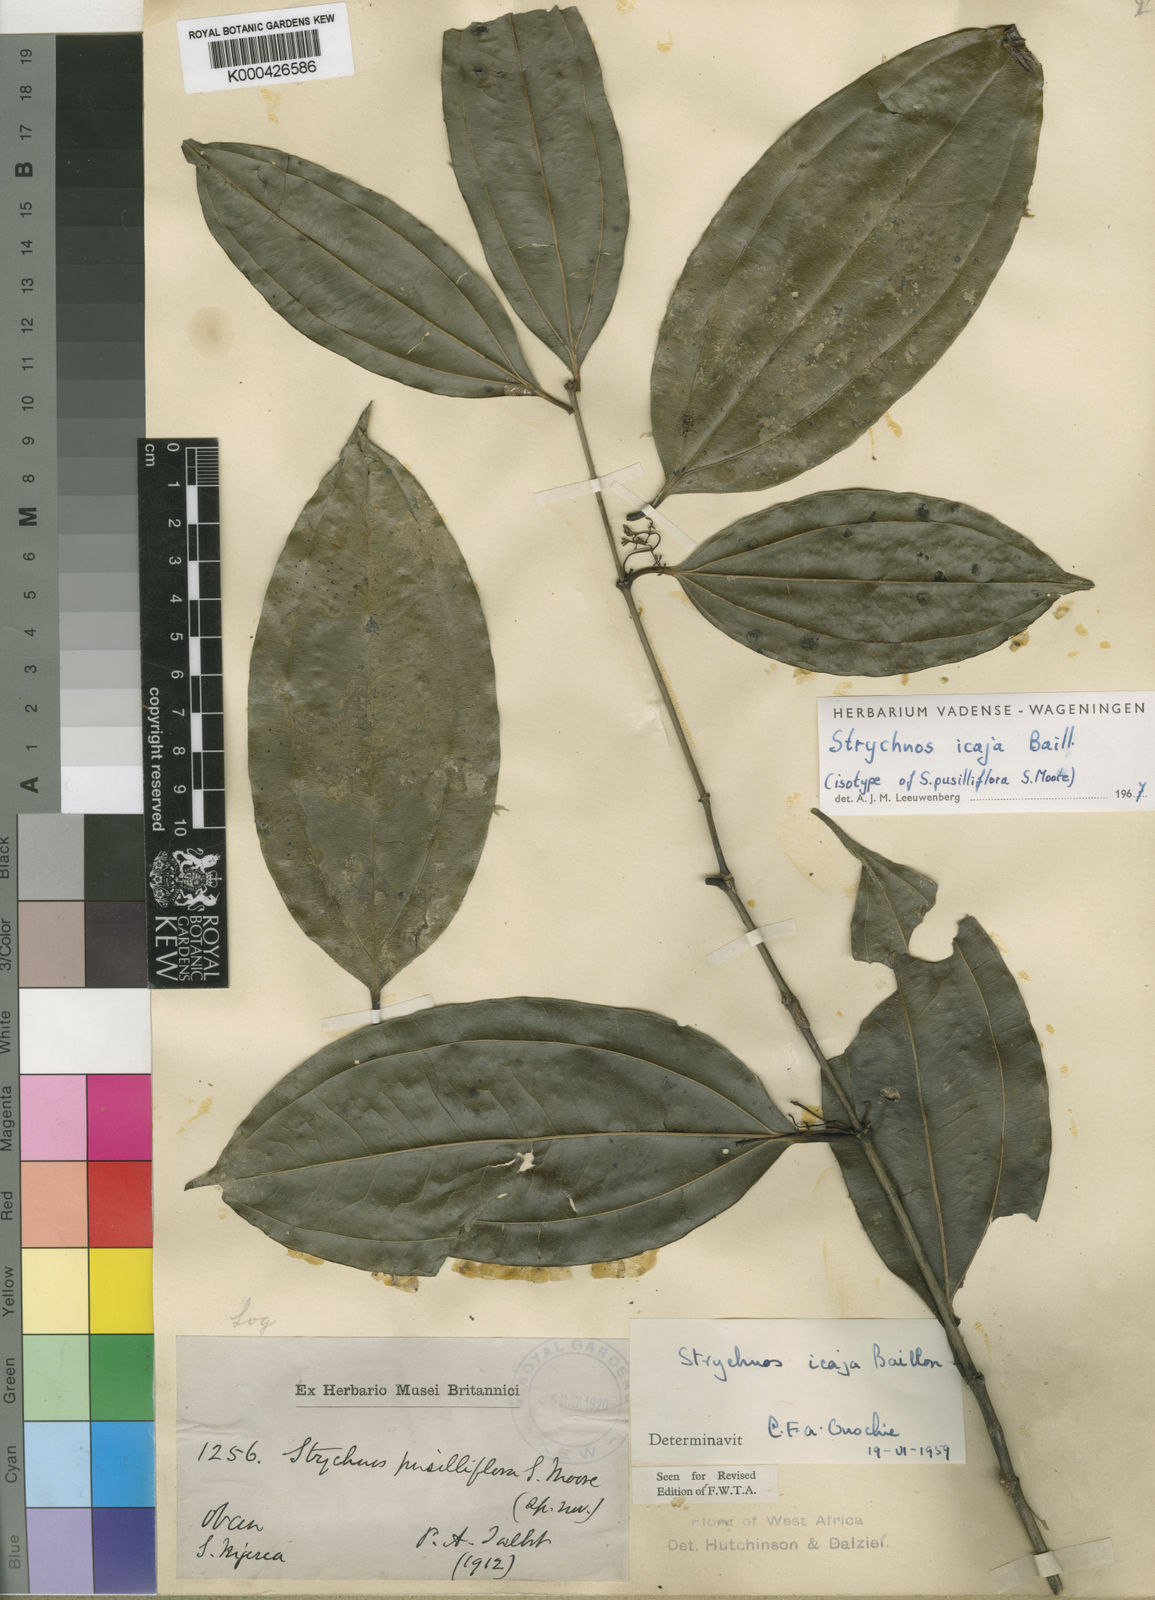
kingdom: Plantae
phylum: Tracheophyta
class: Magnoliopsida
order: Gentianales
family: Loganiaceae
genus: Strychnos
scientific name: Strychnos icaja
